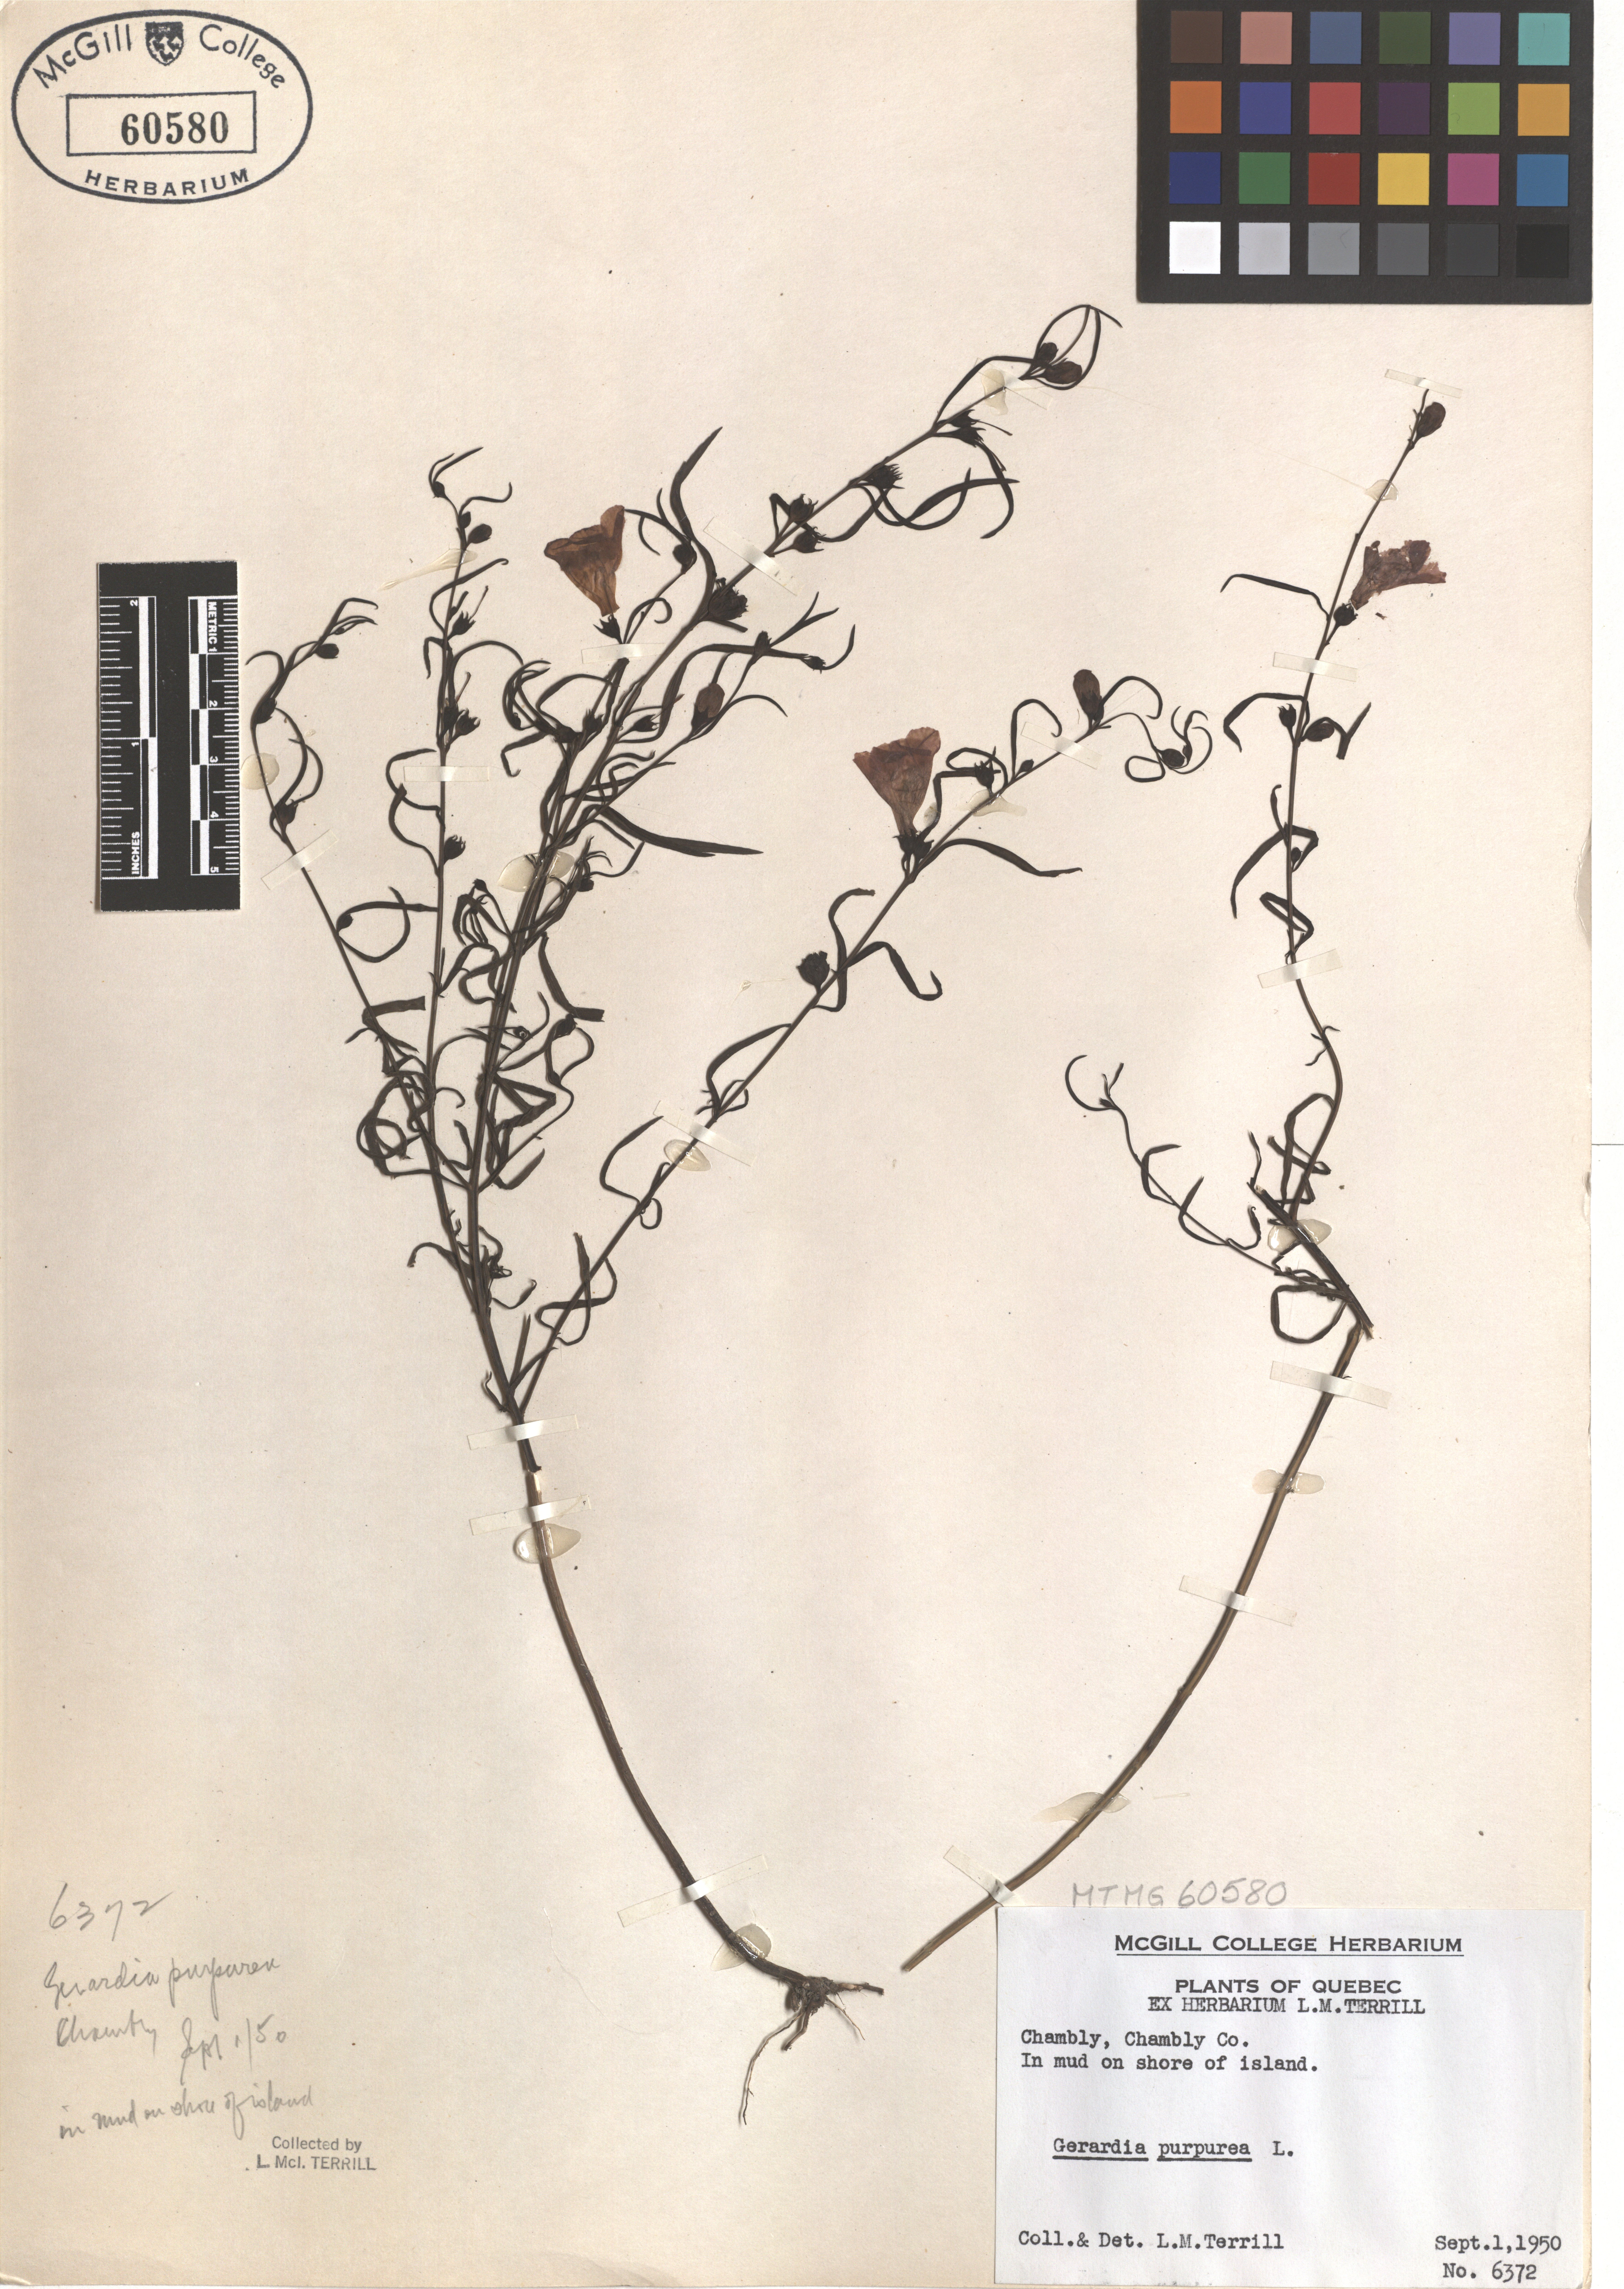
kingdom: Plantae
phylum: Tracheophyta
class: Magnoliopsida
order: Lamiales
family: Orobanchaceae
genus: Agalinis
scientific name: Agalinis purpurea
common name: Purple false foxglove
